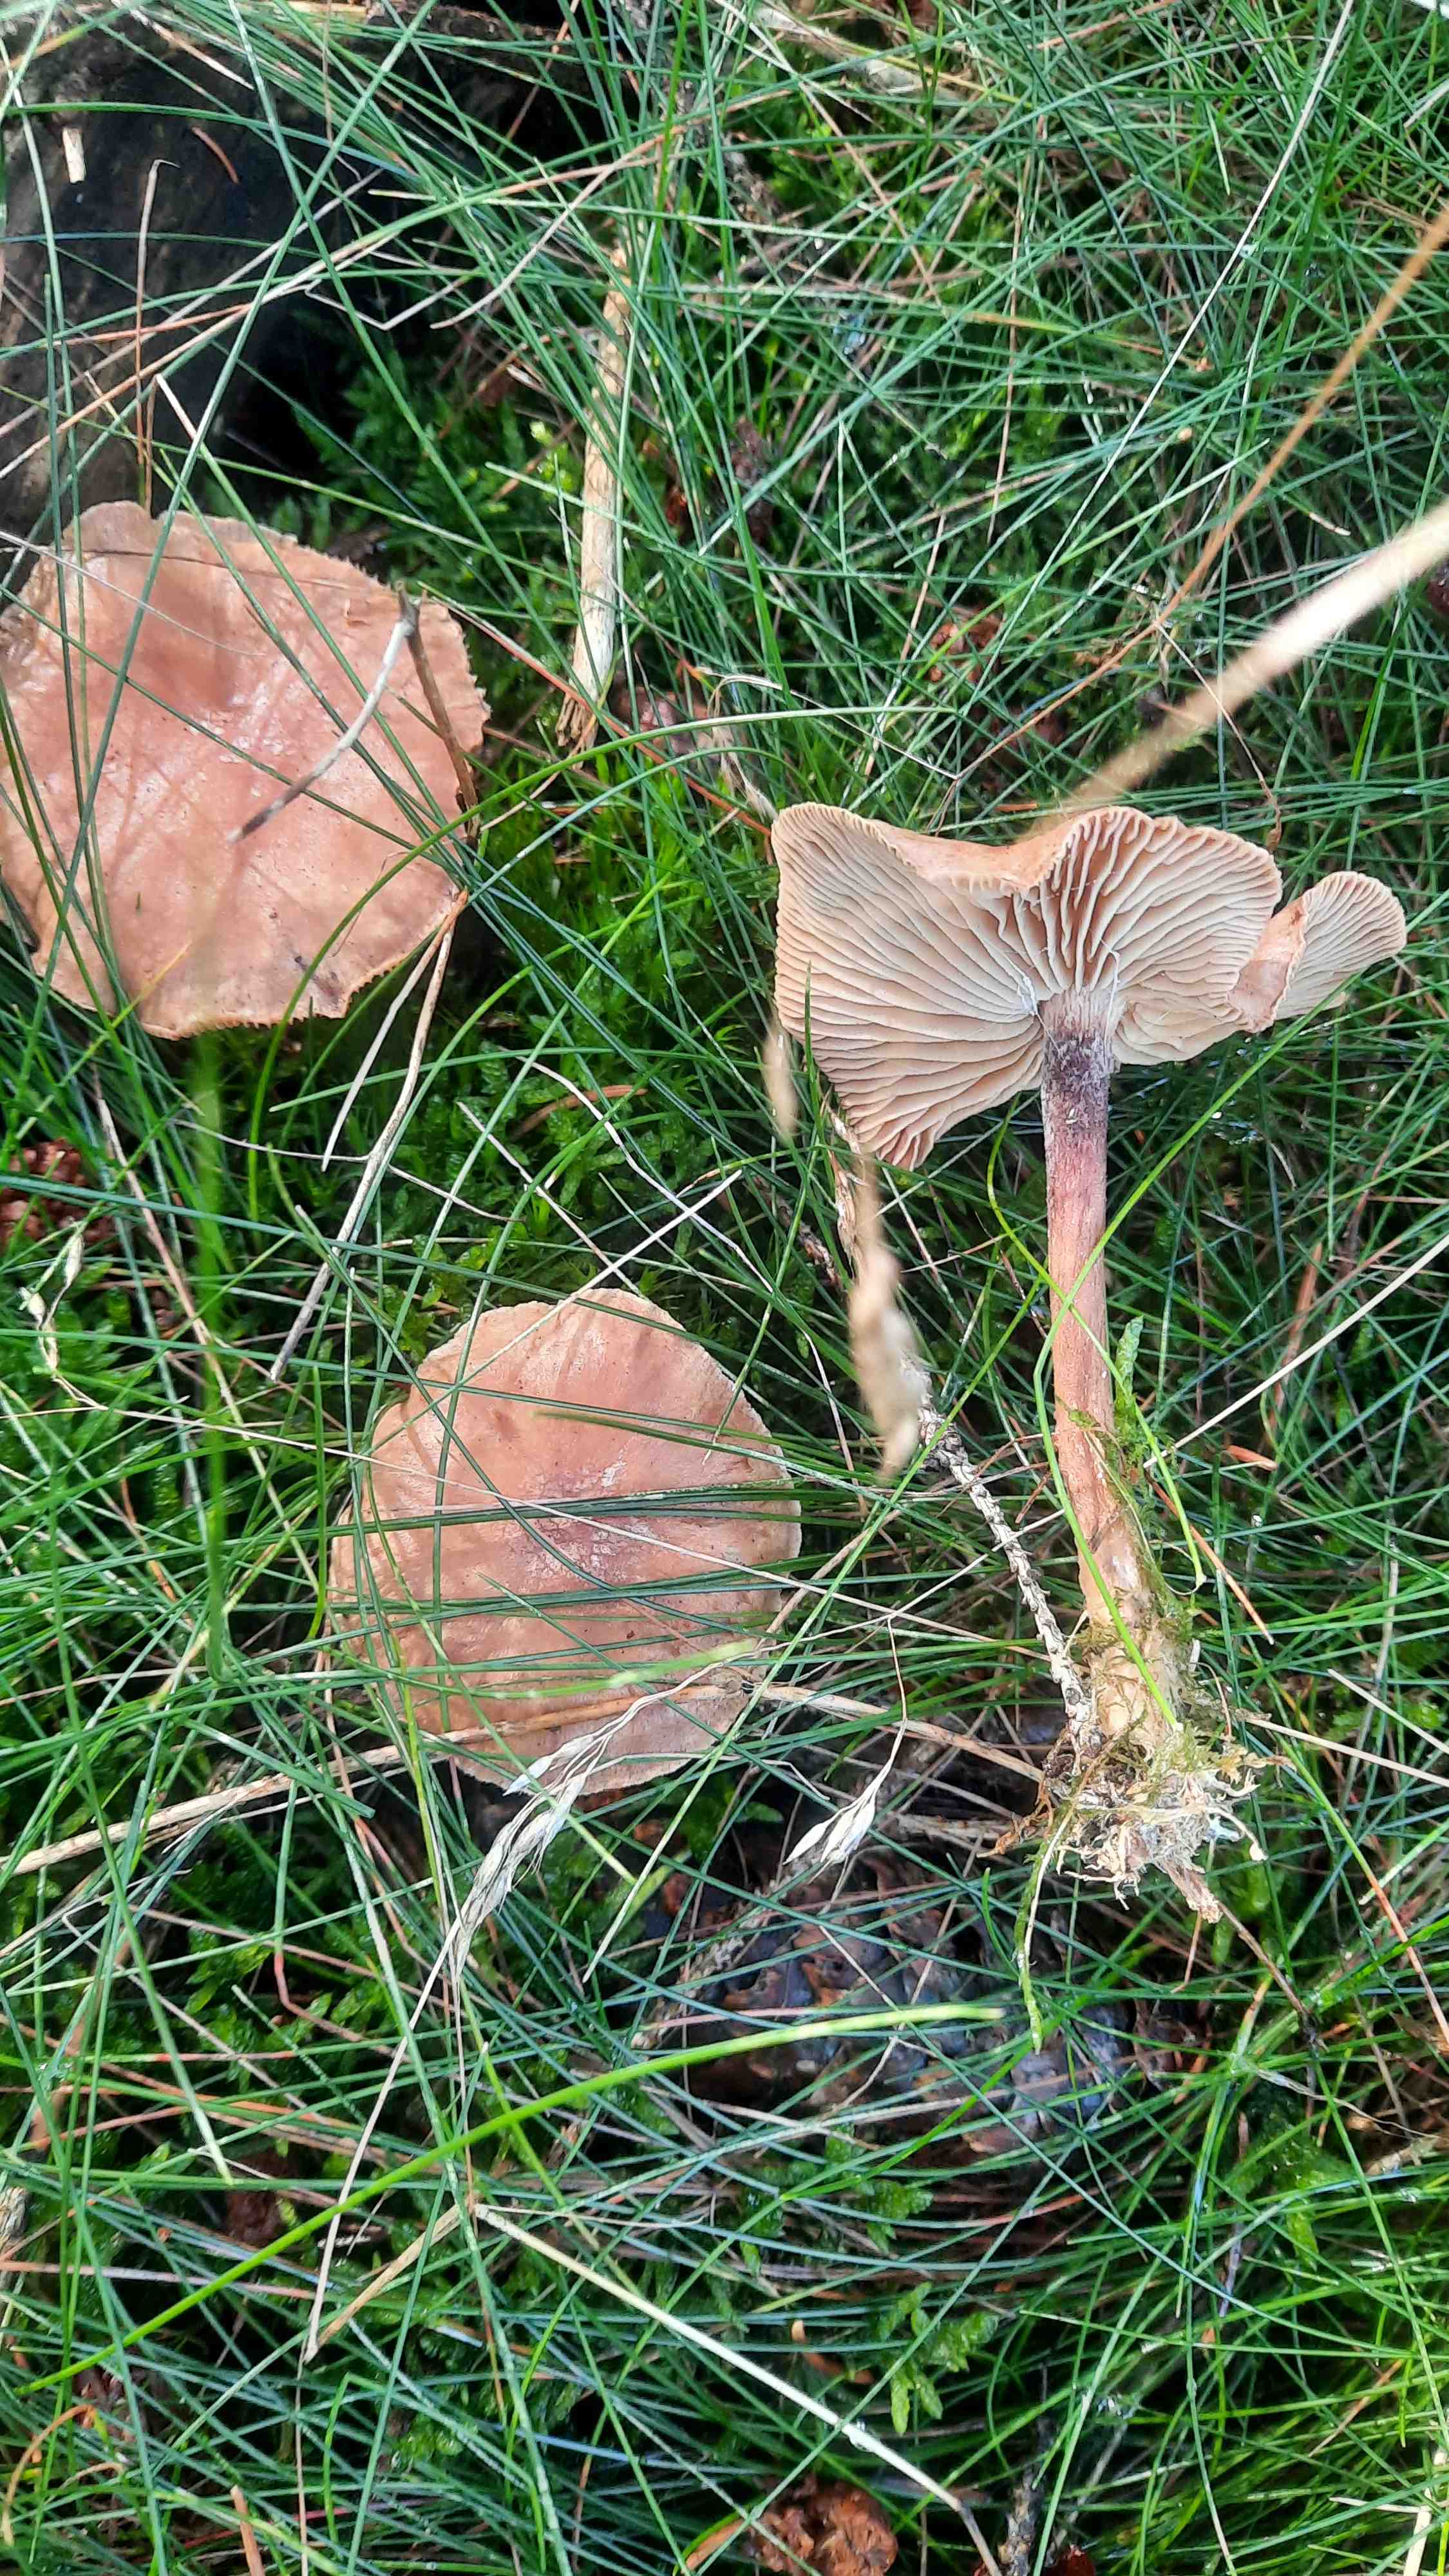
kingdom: Fungi
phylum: Basidiomycota
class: Agaricomycetes
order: Agaricales
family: Omphalotaceae
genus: Collybiopsis
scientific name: Collybiopsis peronata
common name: bestøvlet fladhat
